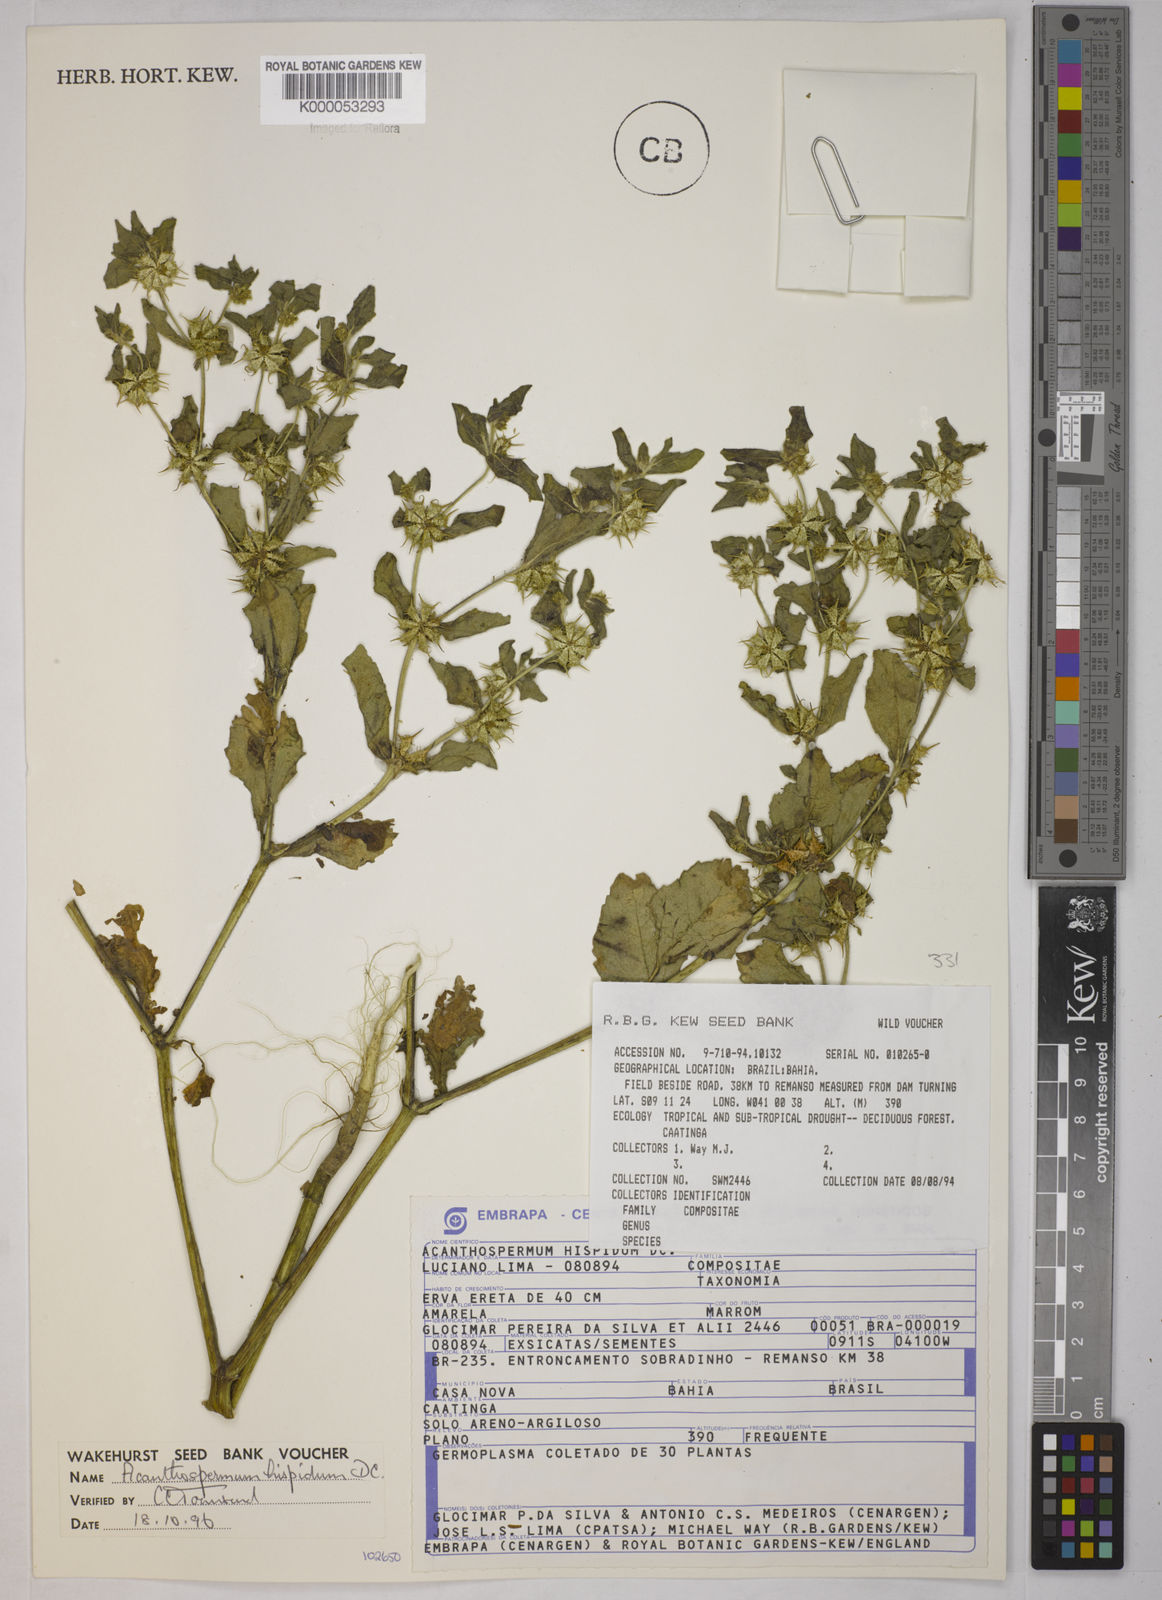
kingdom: Plantae
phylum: Tracheophyta
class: Magnoliopsida
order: Asterales
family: Asteraceae
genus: Acanthospermum
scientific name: Acanthospermum hispidum
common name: Hispid starbur
